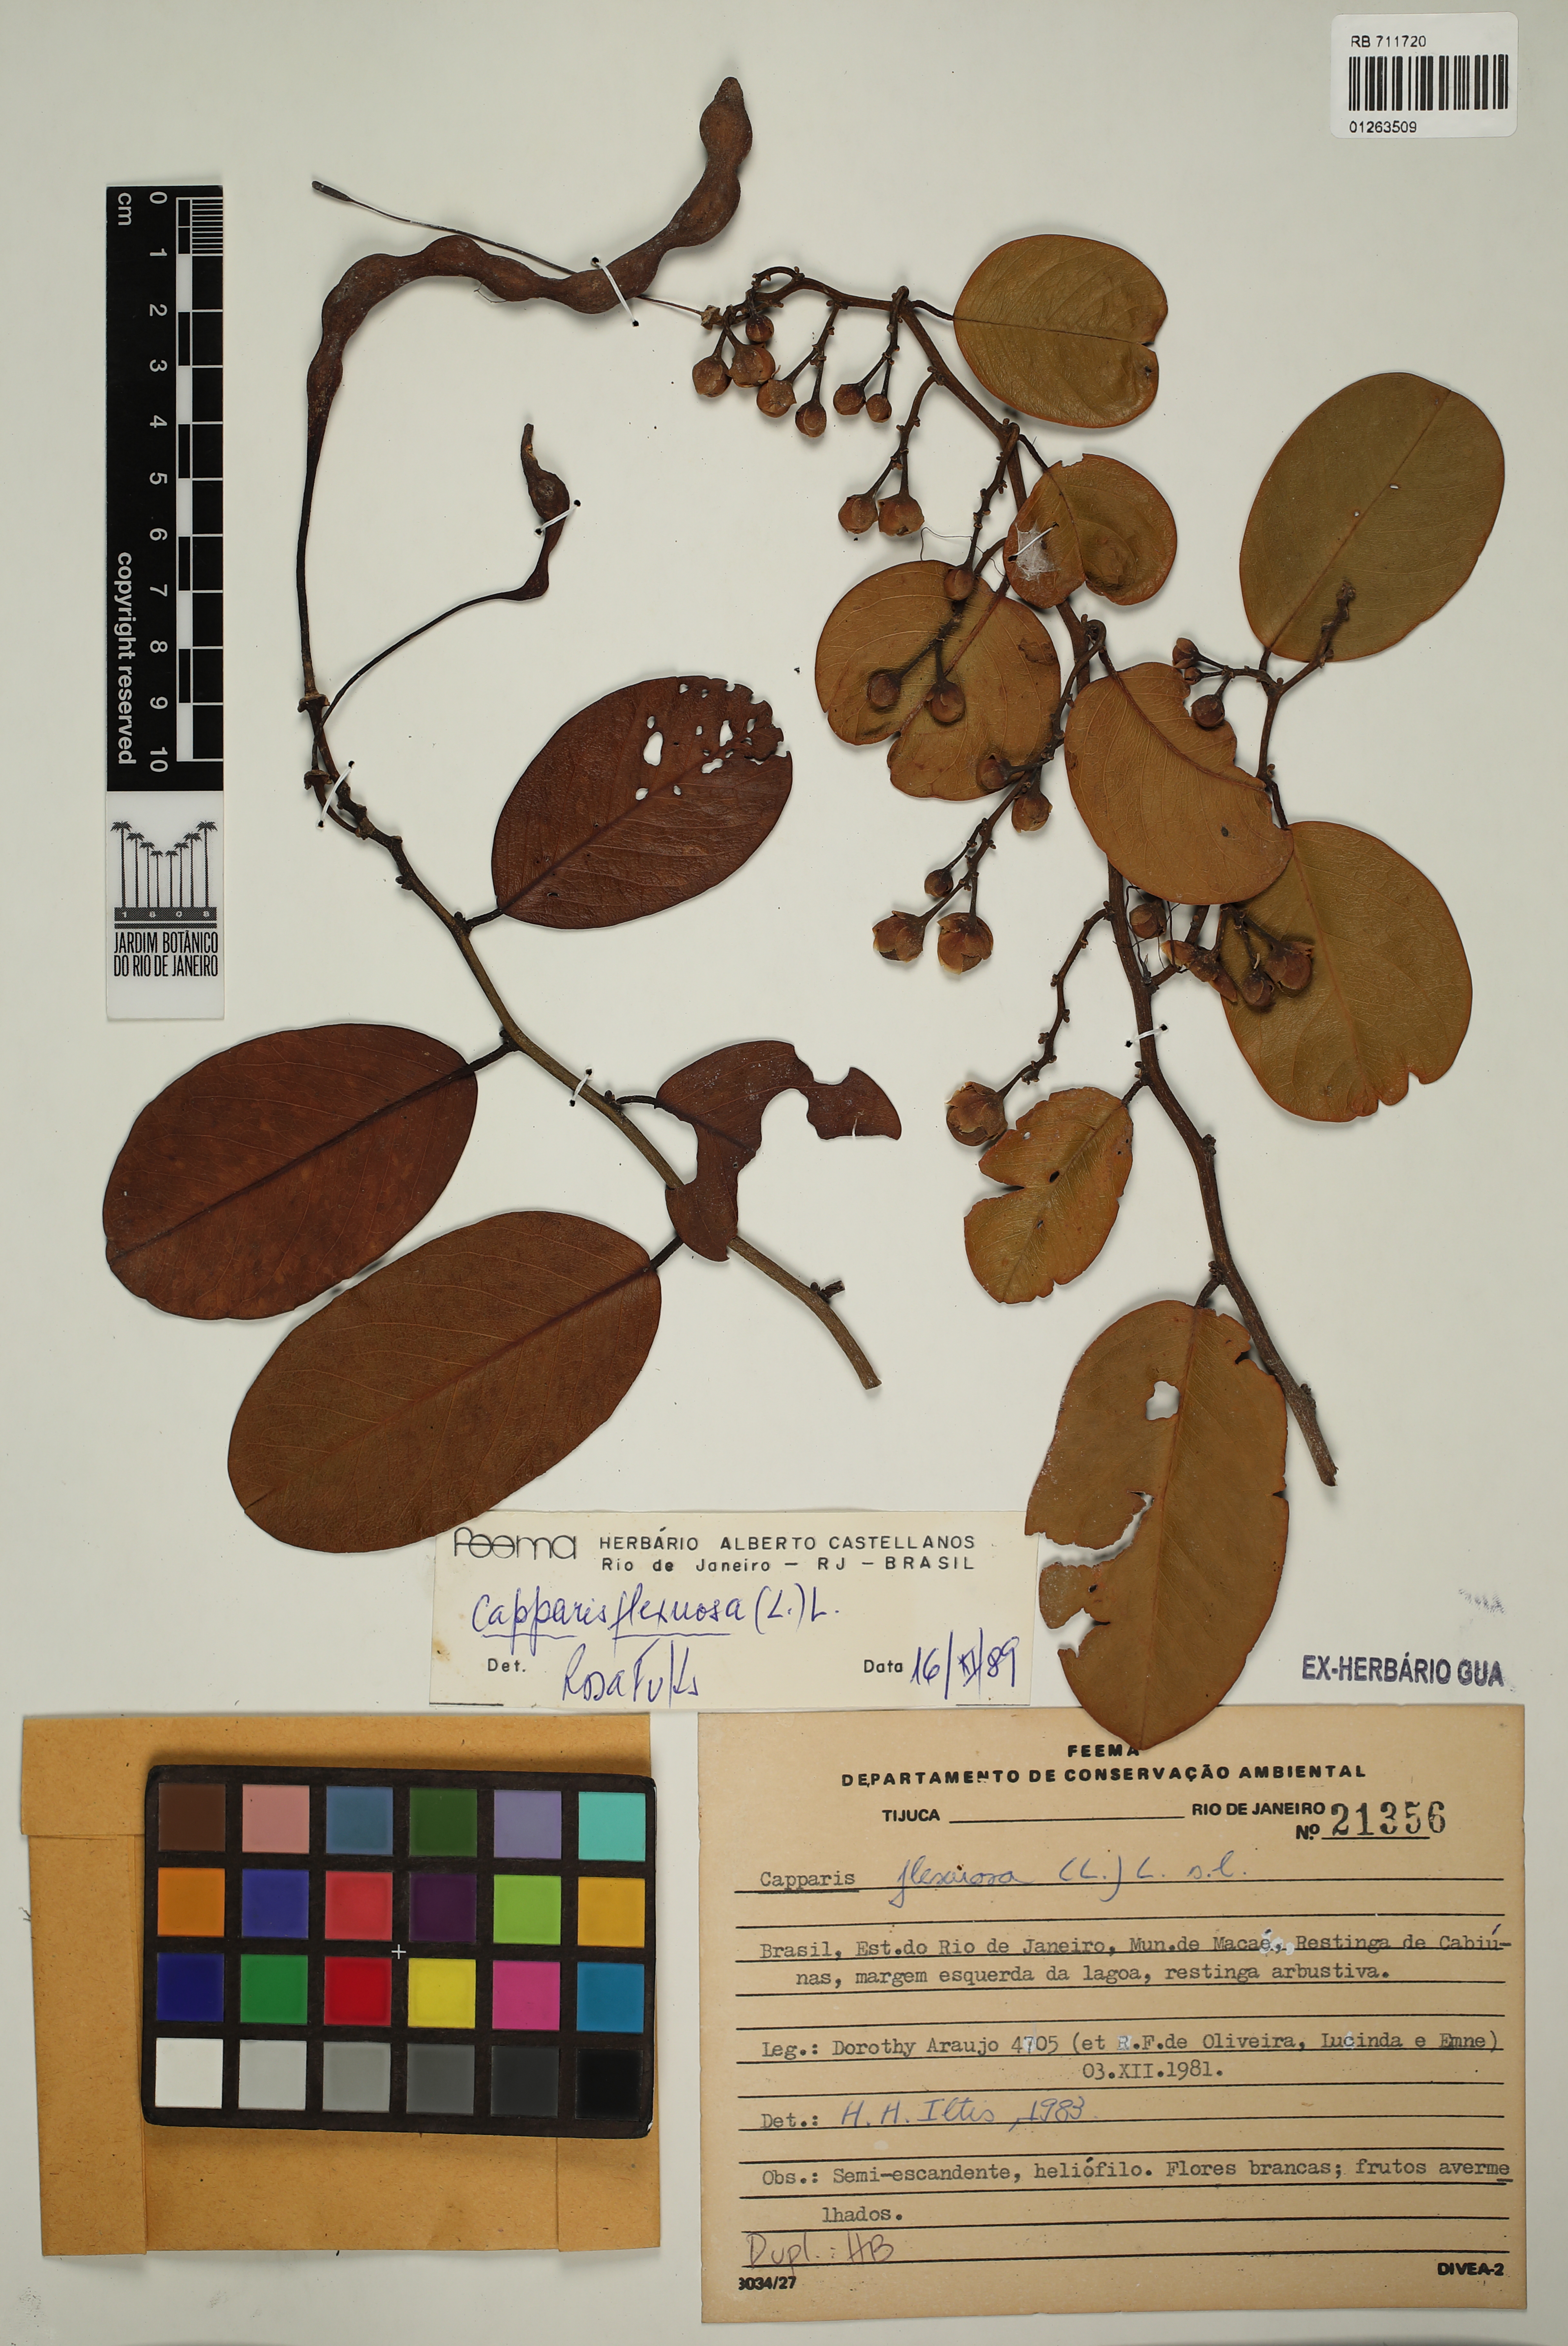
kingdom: Plantae
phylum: Tracheophyta
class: Magnoliopsida
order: Brassicales
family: Capparaceae
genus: Cynophalla
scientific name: Cynophalla flexuosa
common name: Capertree
